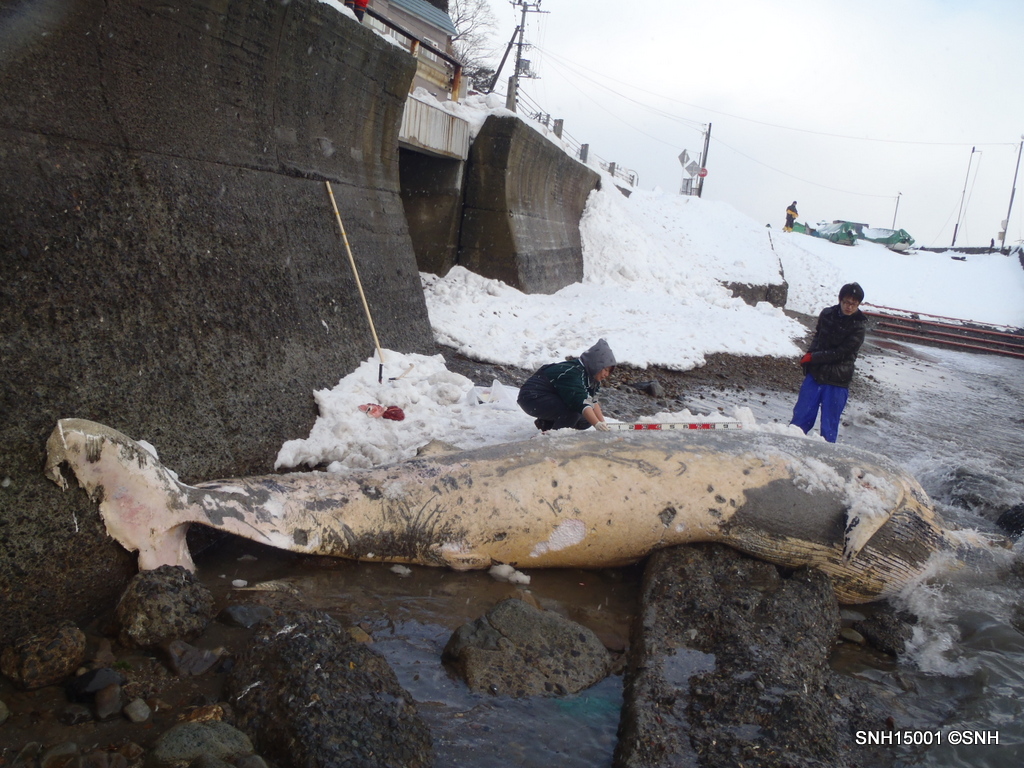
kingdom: Animalia
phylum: Chordata
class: Mammalia
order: Cetacea
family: Balaenopteridae
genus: Balaenoptera
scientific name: Balaenoptera acutorostrata
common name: Minke whale
